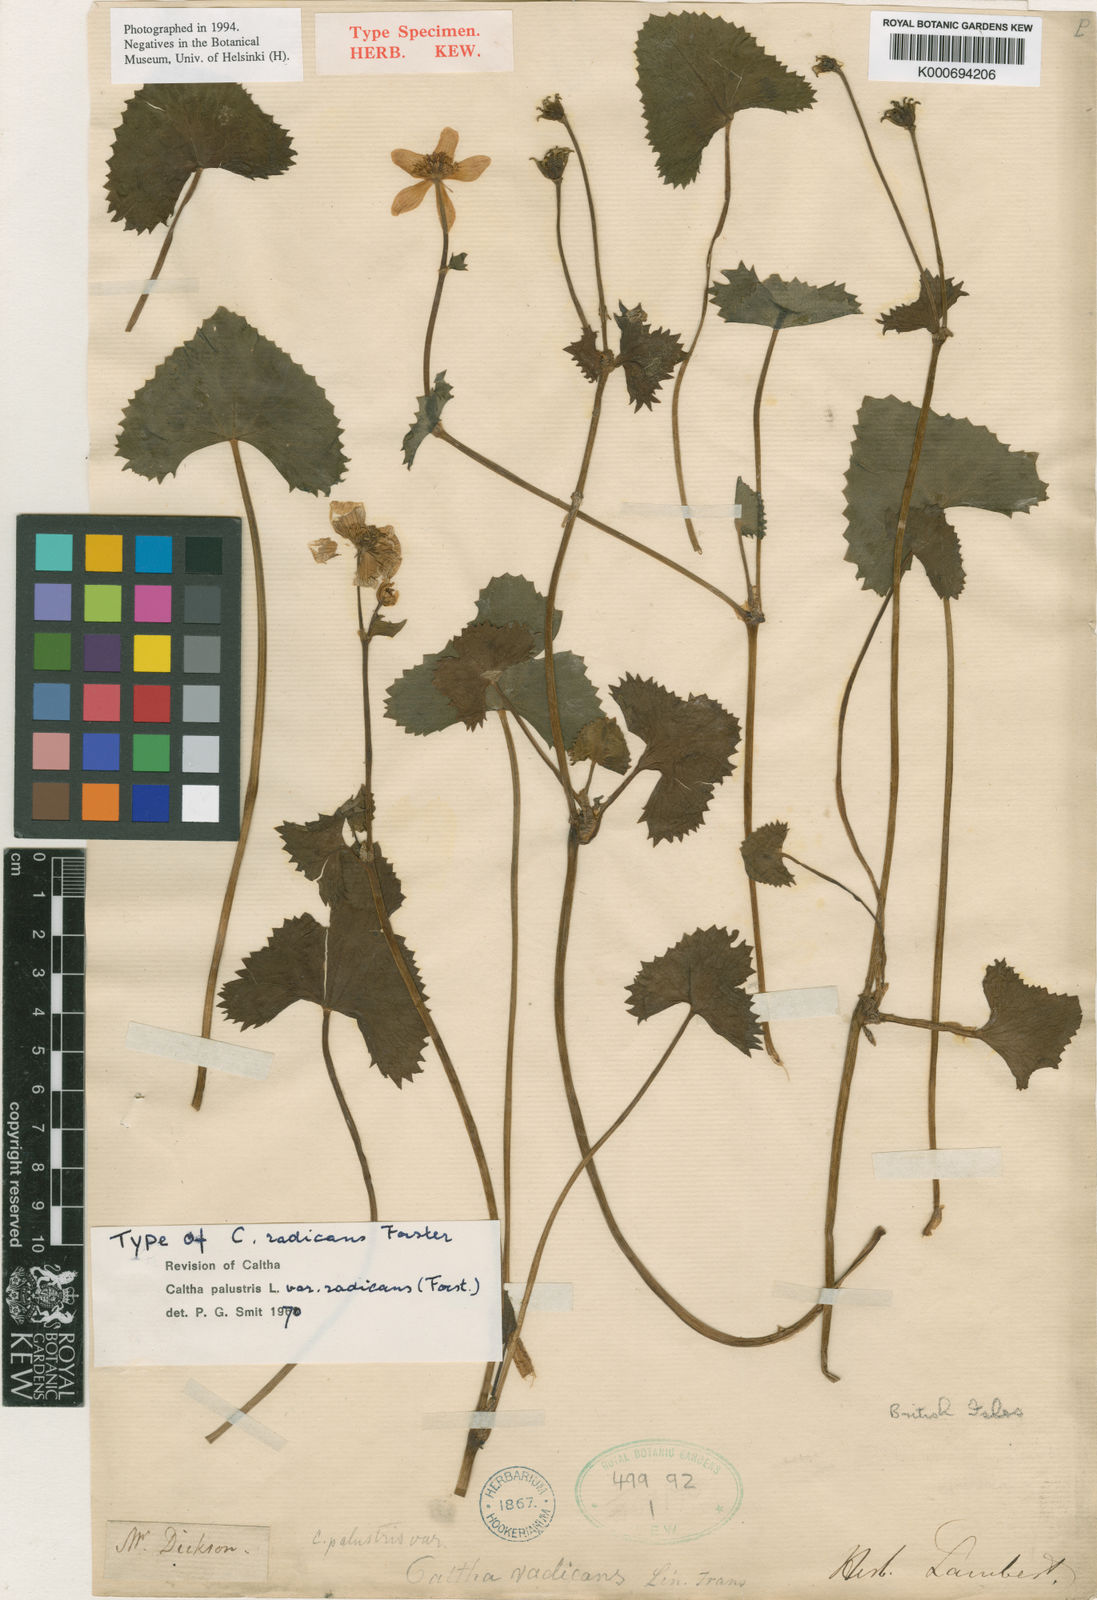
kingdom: Plantae
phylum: Tracheophyta
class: Magnoliopsida
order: Ranunculales
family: Ranunculaceae
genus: Caltha
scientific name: Caltha palustris
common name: Marsh marigold
